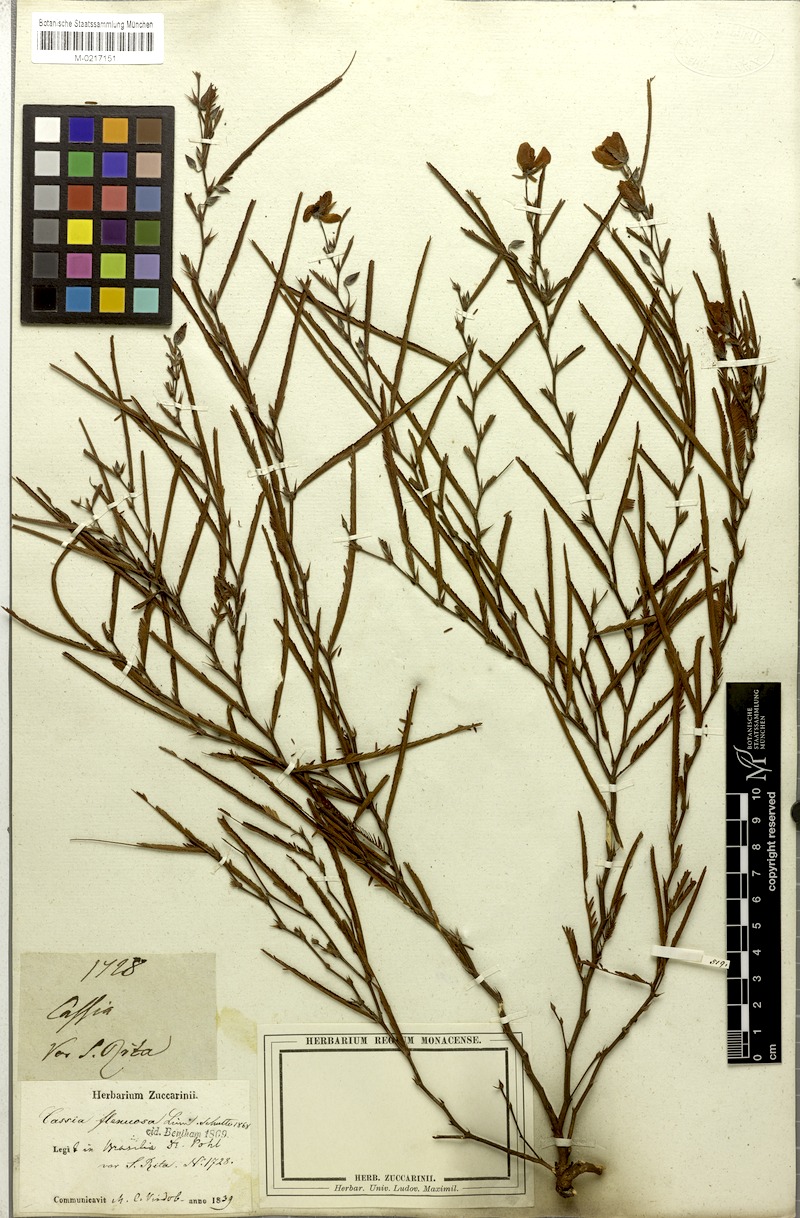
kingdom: Plantae
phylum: Tracheophyta
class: Magnoliopsida
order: Fabales
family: Fabaceae
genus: Chamaecrista
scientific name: Chamaecrista flexuosa
